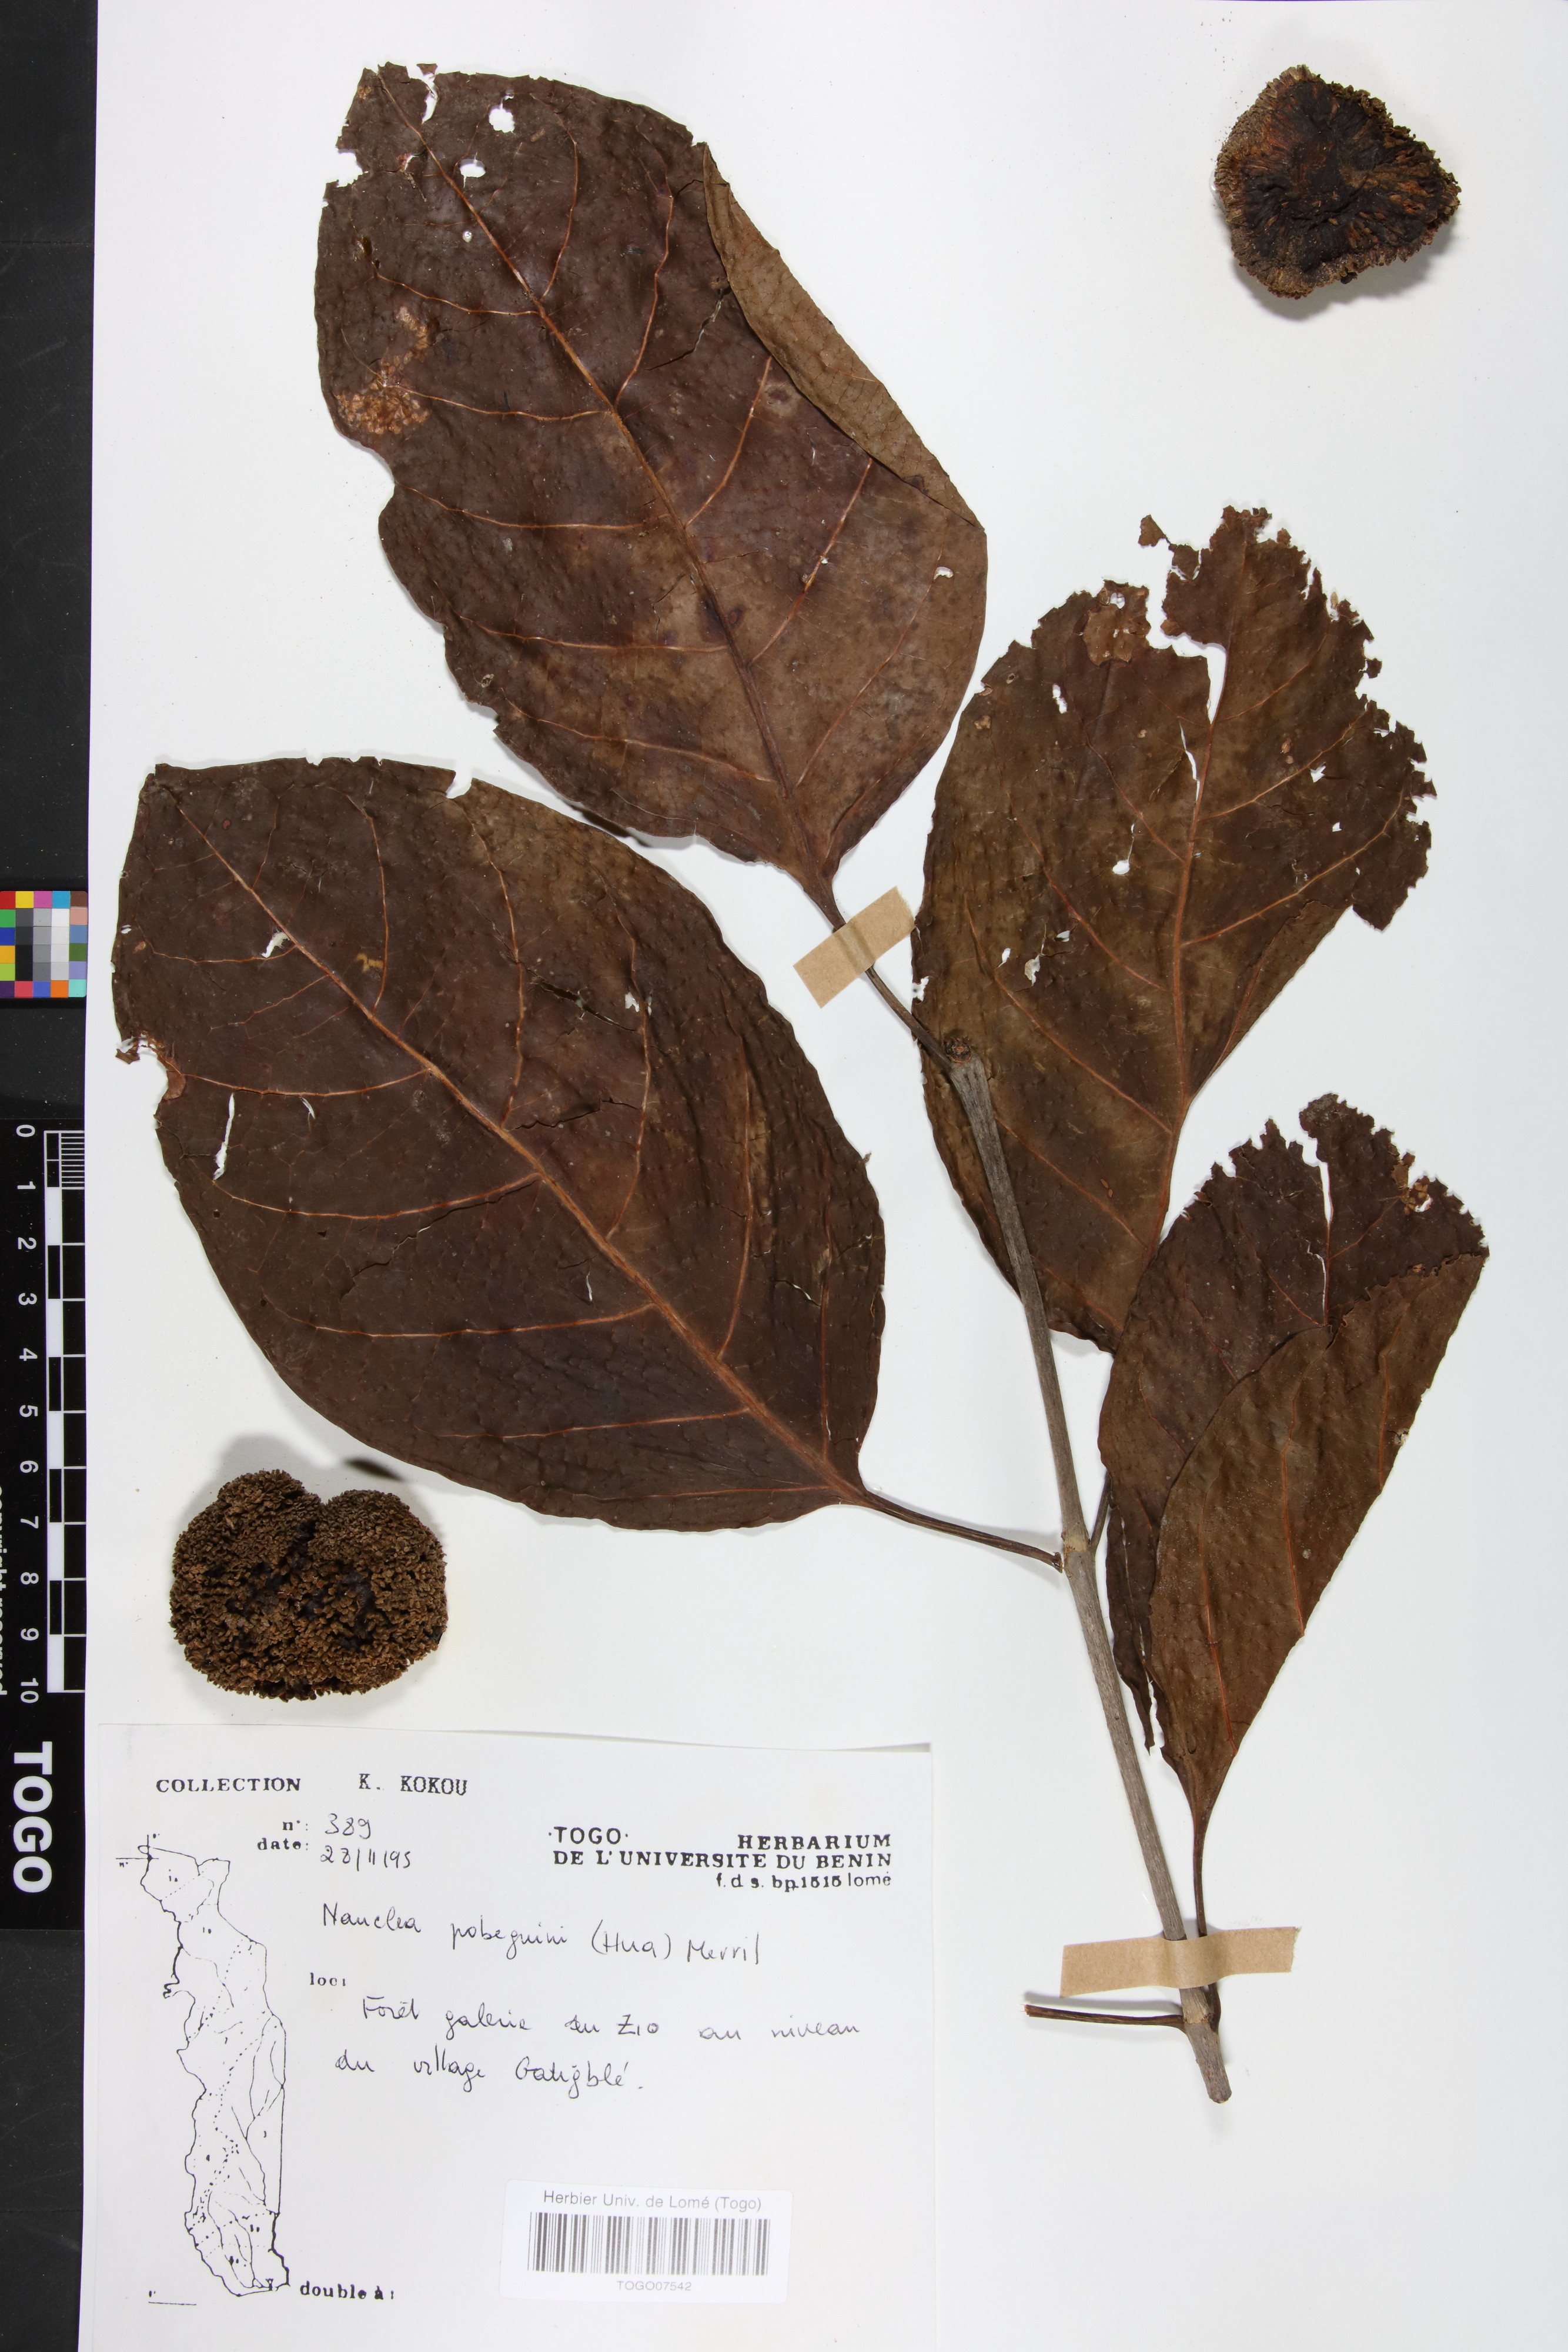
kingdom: Plantae
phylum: Tracheophyta
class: Magnoliopsida
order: Gentianales
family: Rubiaceae
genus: Nauclea
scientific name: Nauclea pobeguinii
